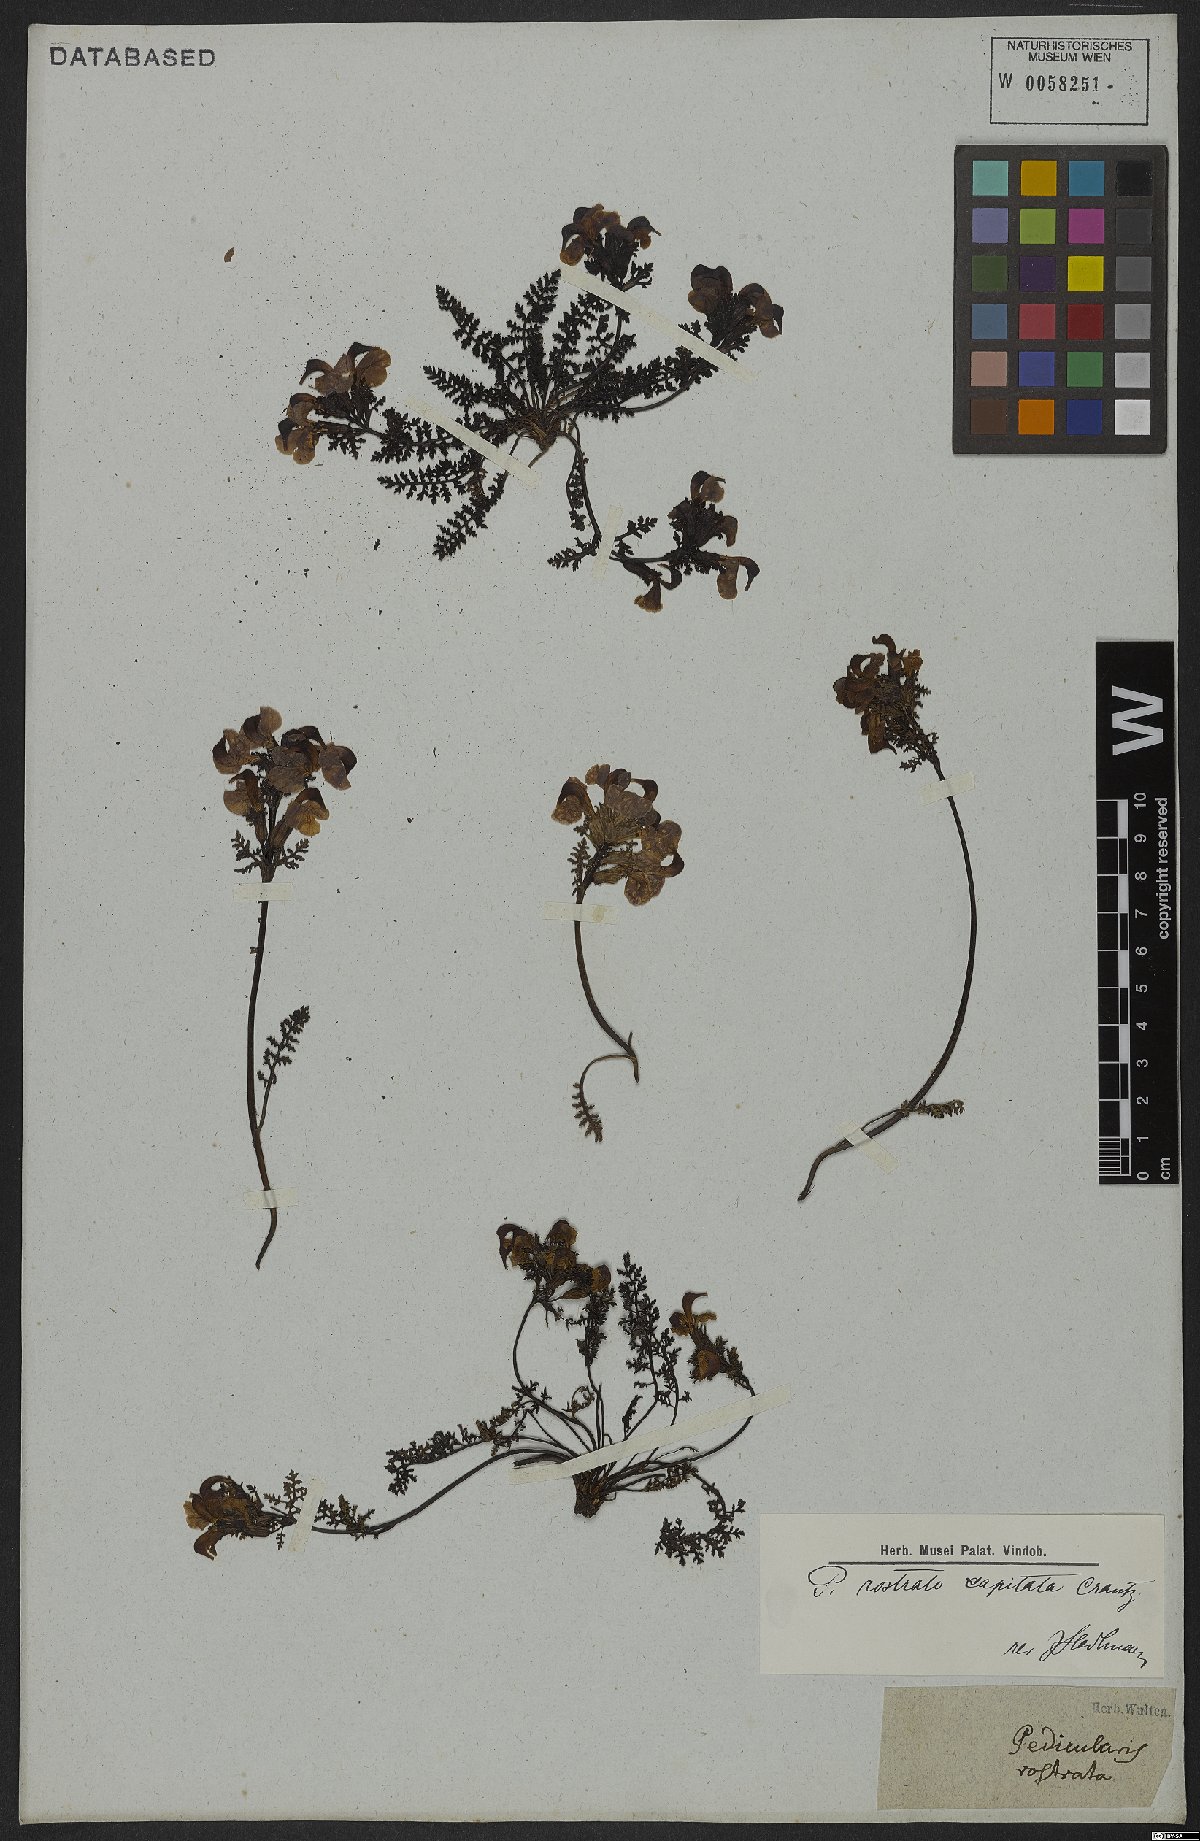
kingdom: Plantae
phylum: Tracheophyta
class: Magnoliopsida
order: Lamiales
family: Orobanchaceae
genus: Pedicularis
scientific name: Pedicularis rostratocapitata
